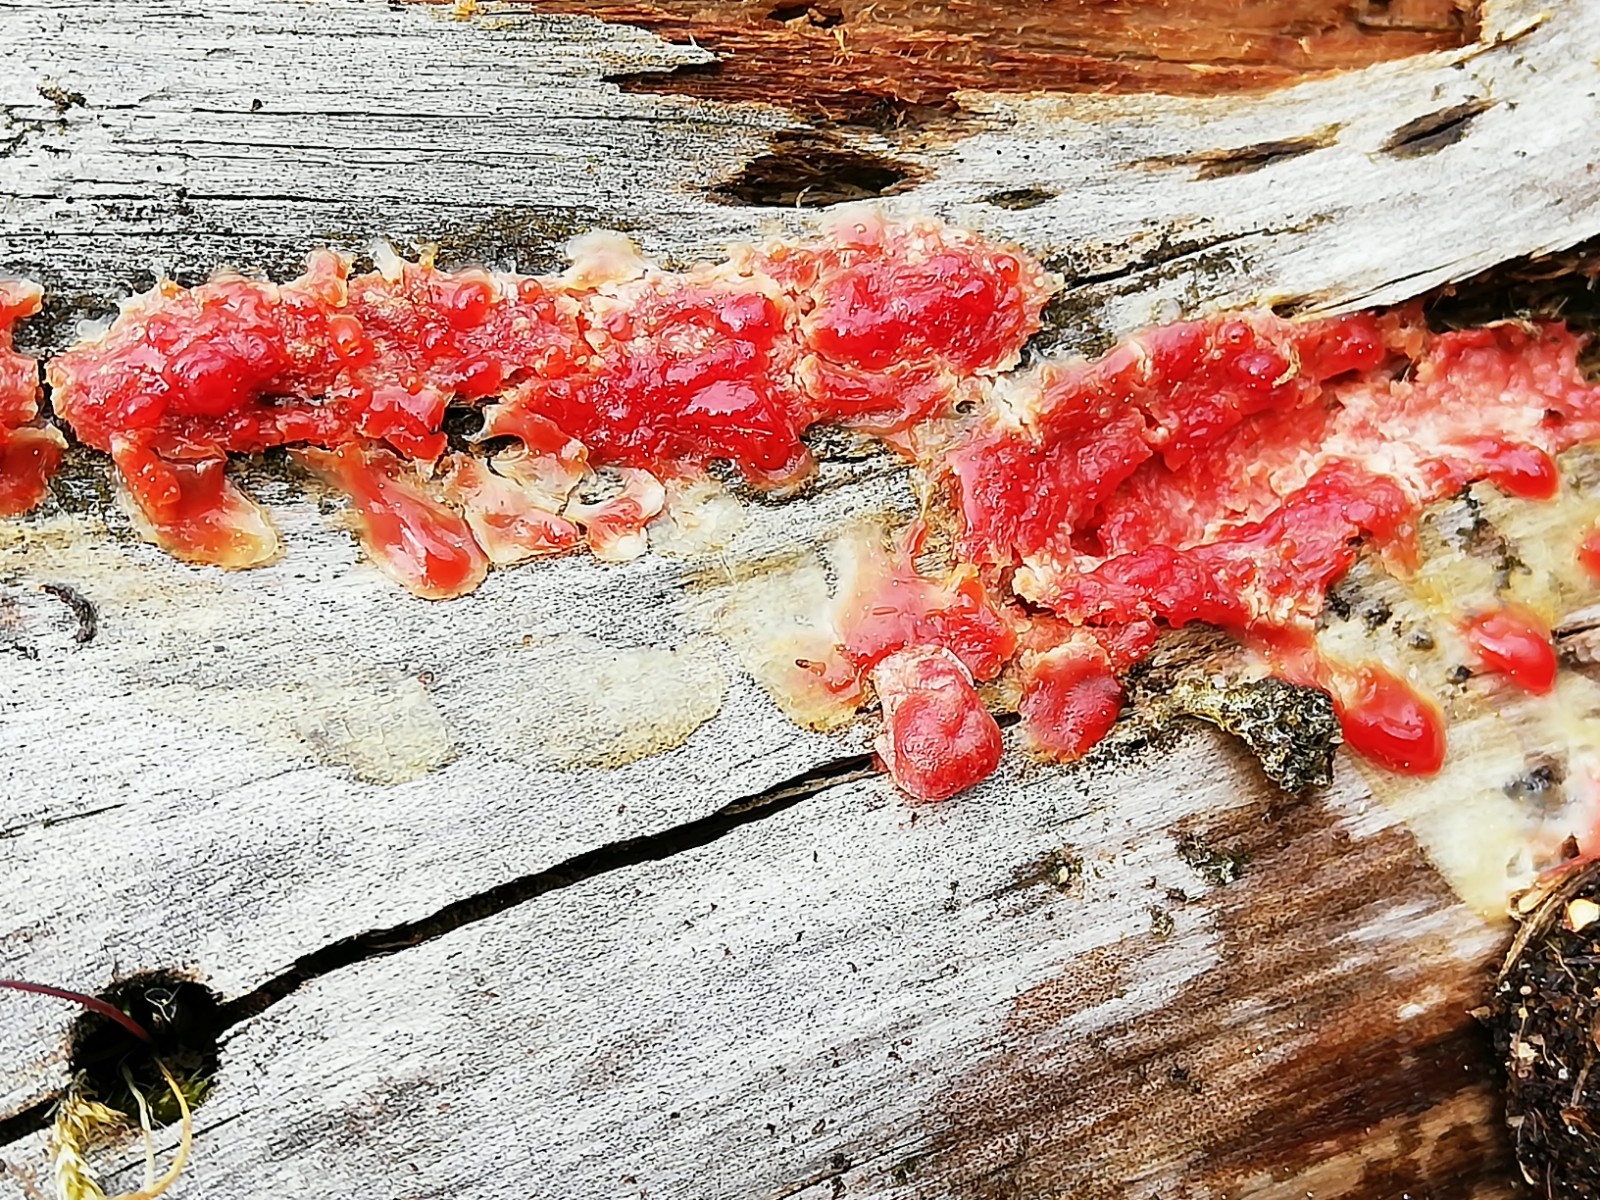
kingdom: Protozoa
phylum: Mycetozoa
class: Myxomycetes
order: Cribrariales
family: Tubiferaceae
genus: Lycogala
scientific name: Lycogala epidendrum
